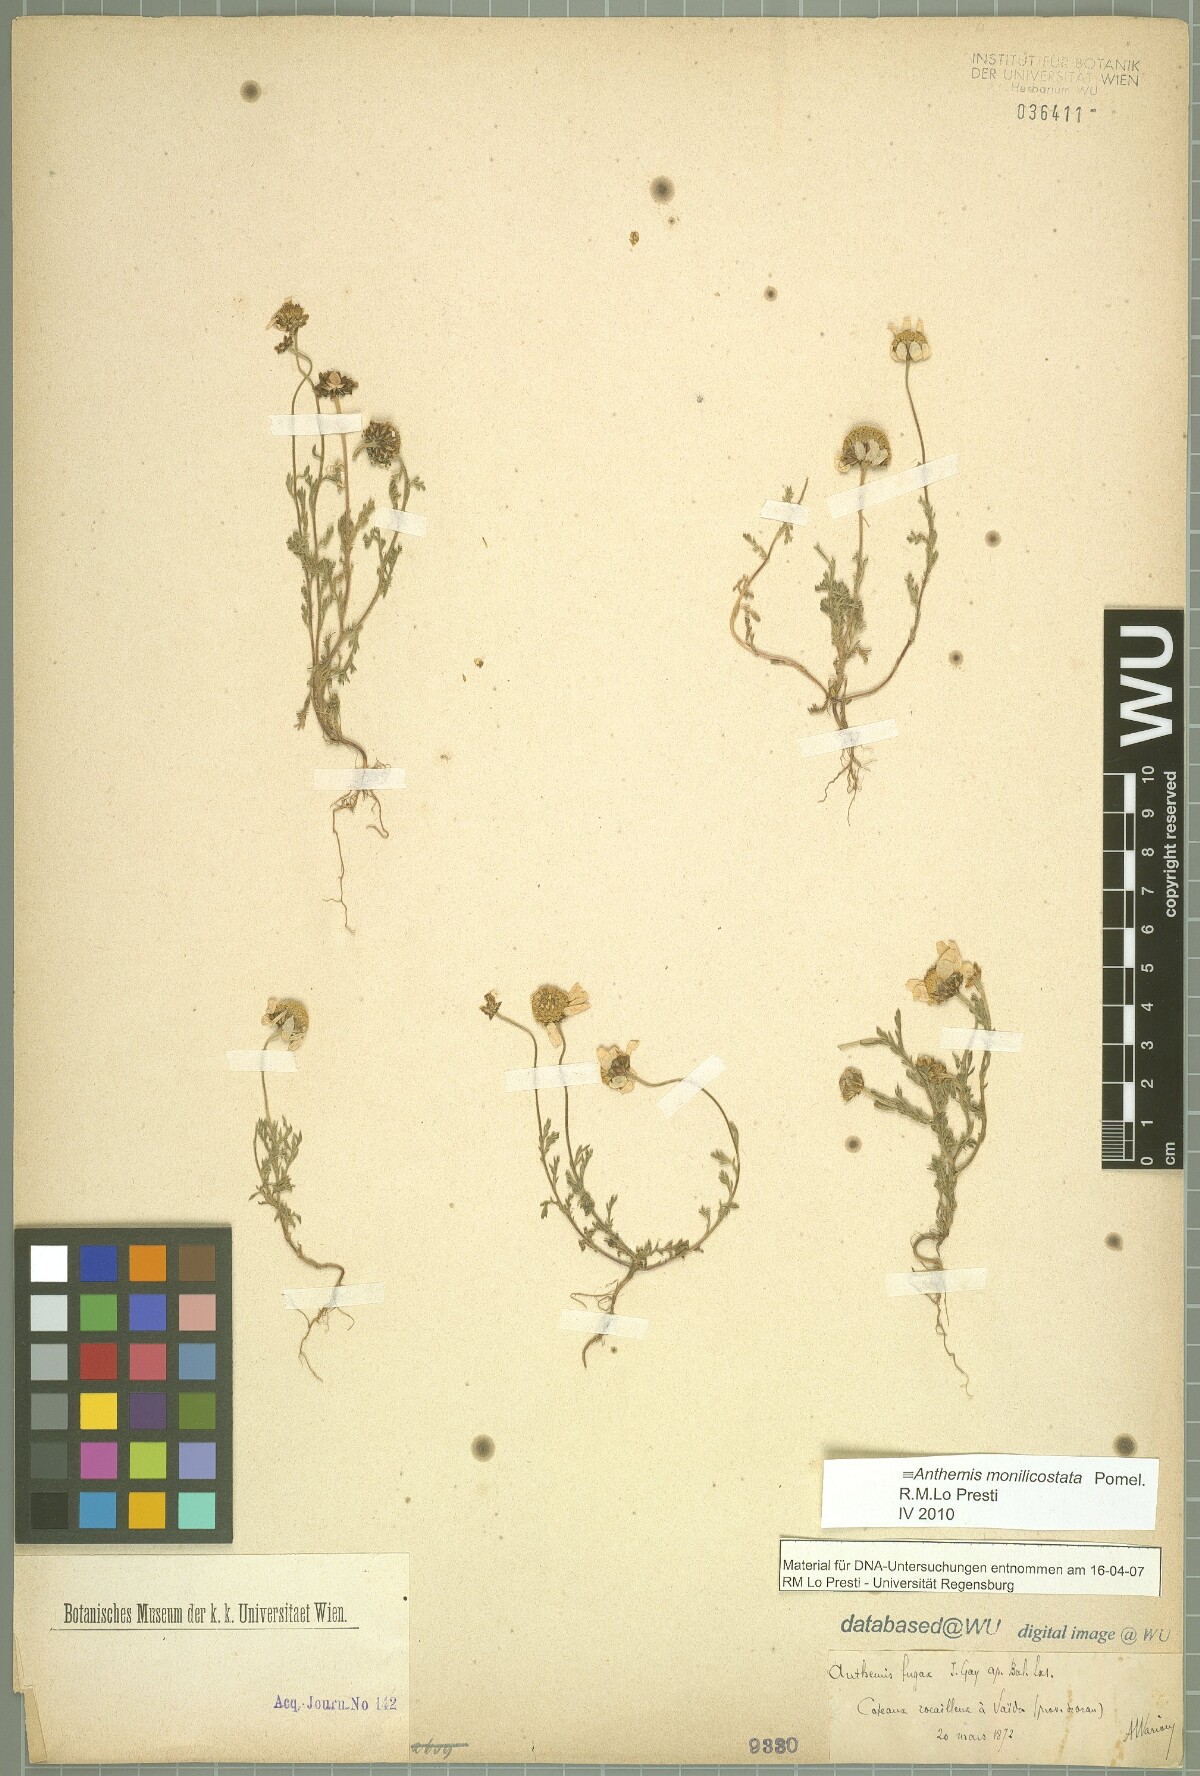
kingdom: Plantae
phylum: Tracheophyta
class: Magnoliopsida
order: Asterales
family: Asteraceae
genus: Anthemis
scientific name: Anthemis monilicostata
